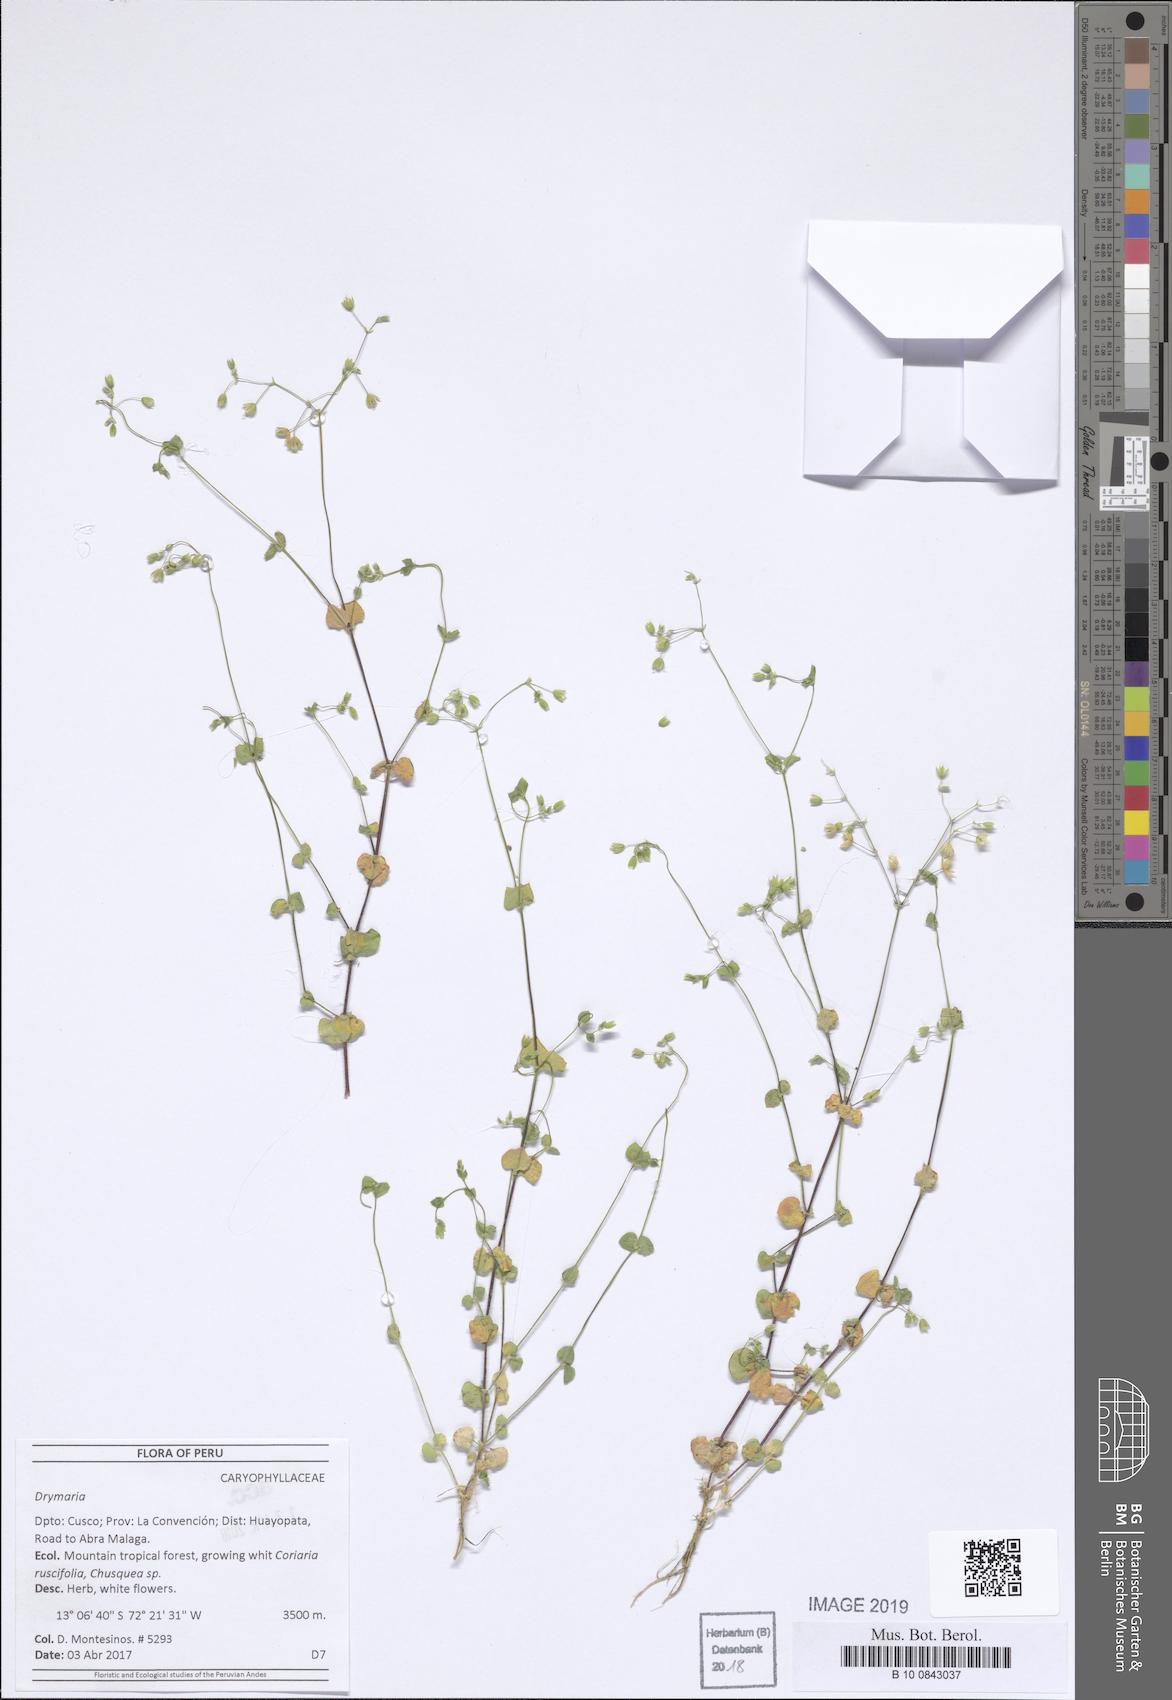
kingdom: Plantae
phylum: Tracheophyta
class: Magnoliopsida
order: Caryophyllales
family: Caryophyllaceae
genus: Drymaria
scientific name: Drymaria
